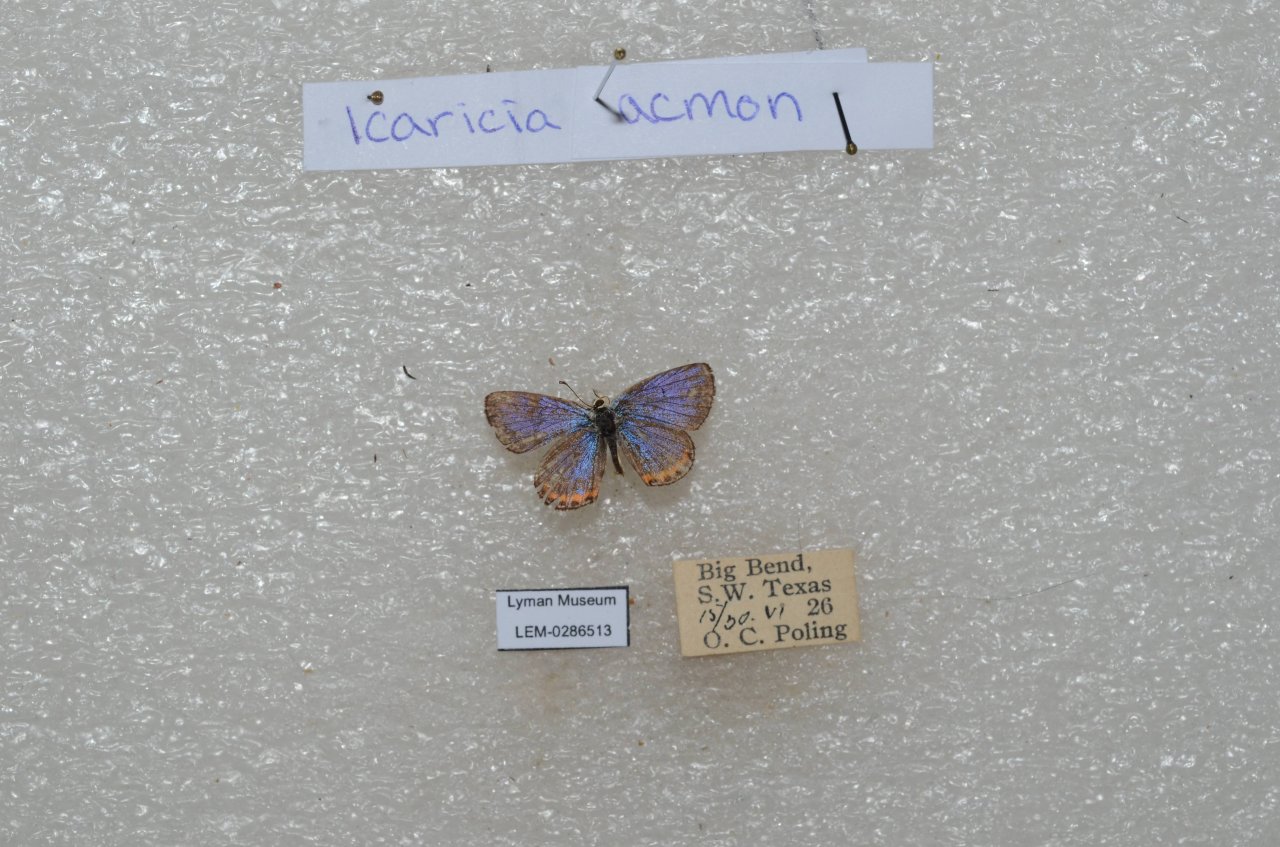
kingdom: Animalia
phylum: Arthropoda
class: Insecta
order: Lepidoptera
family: Lycaenidae
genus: Plebejus
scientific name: Plebejus acmon
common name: Acmon Blue
